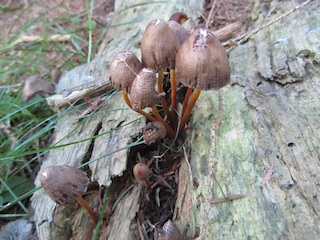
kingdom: Fungi
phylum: Basidiomycota
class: Agaricomycetes
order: Agaricales
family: Mycenaceae
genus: Mycena
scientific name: Mycena inclinata
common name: nikkende huesvamp
